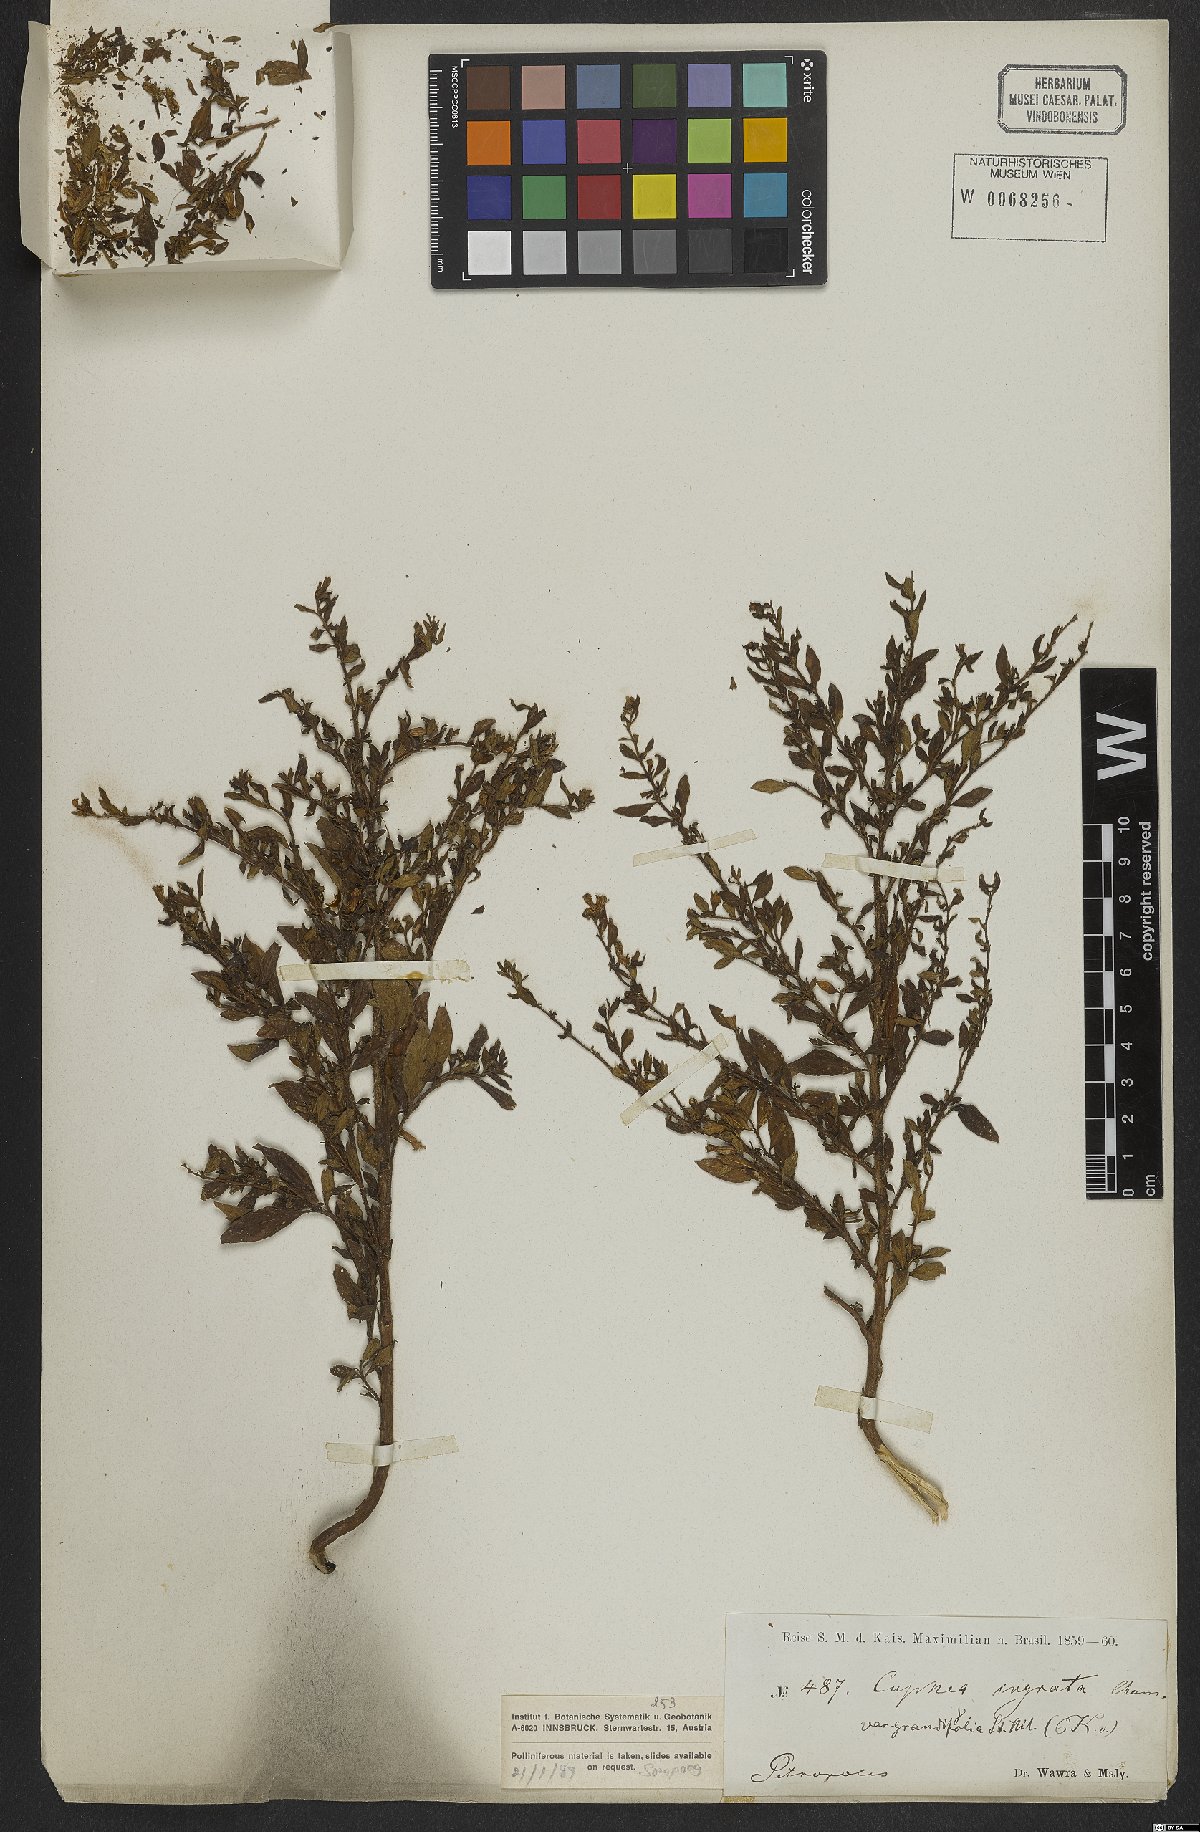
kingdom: Plantae
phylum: Tracheophyta
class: Magnoliopsida
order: Myrtales
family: Lythraceae
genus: Cuphea
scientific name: Cuphea ingrata
